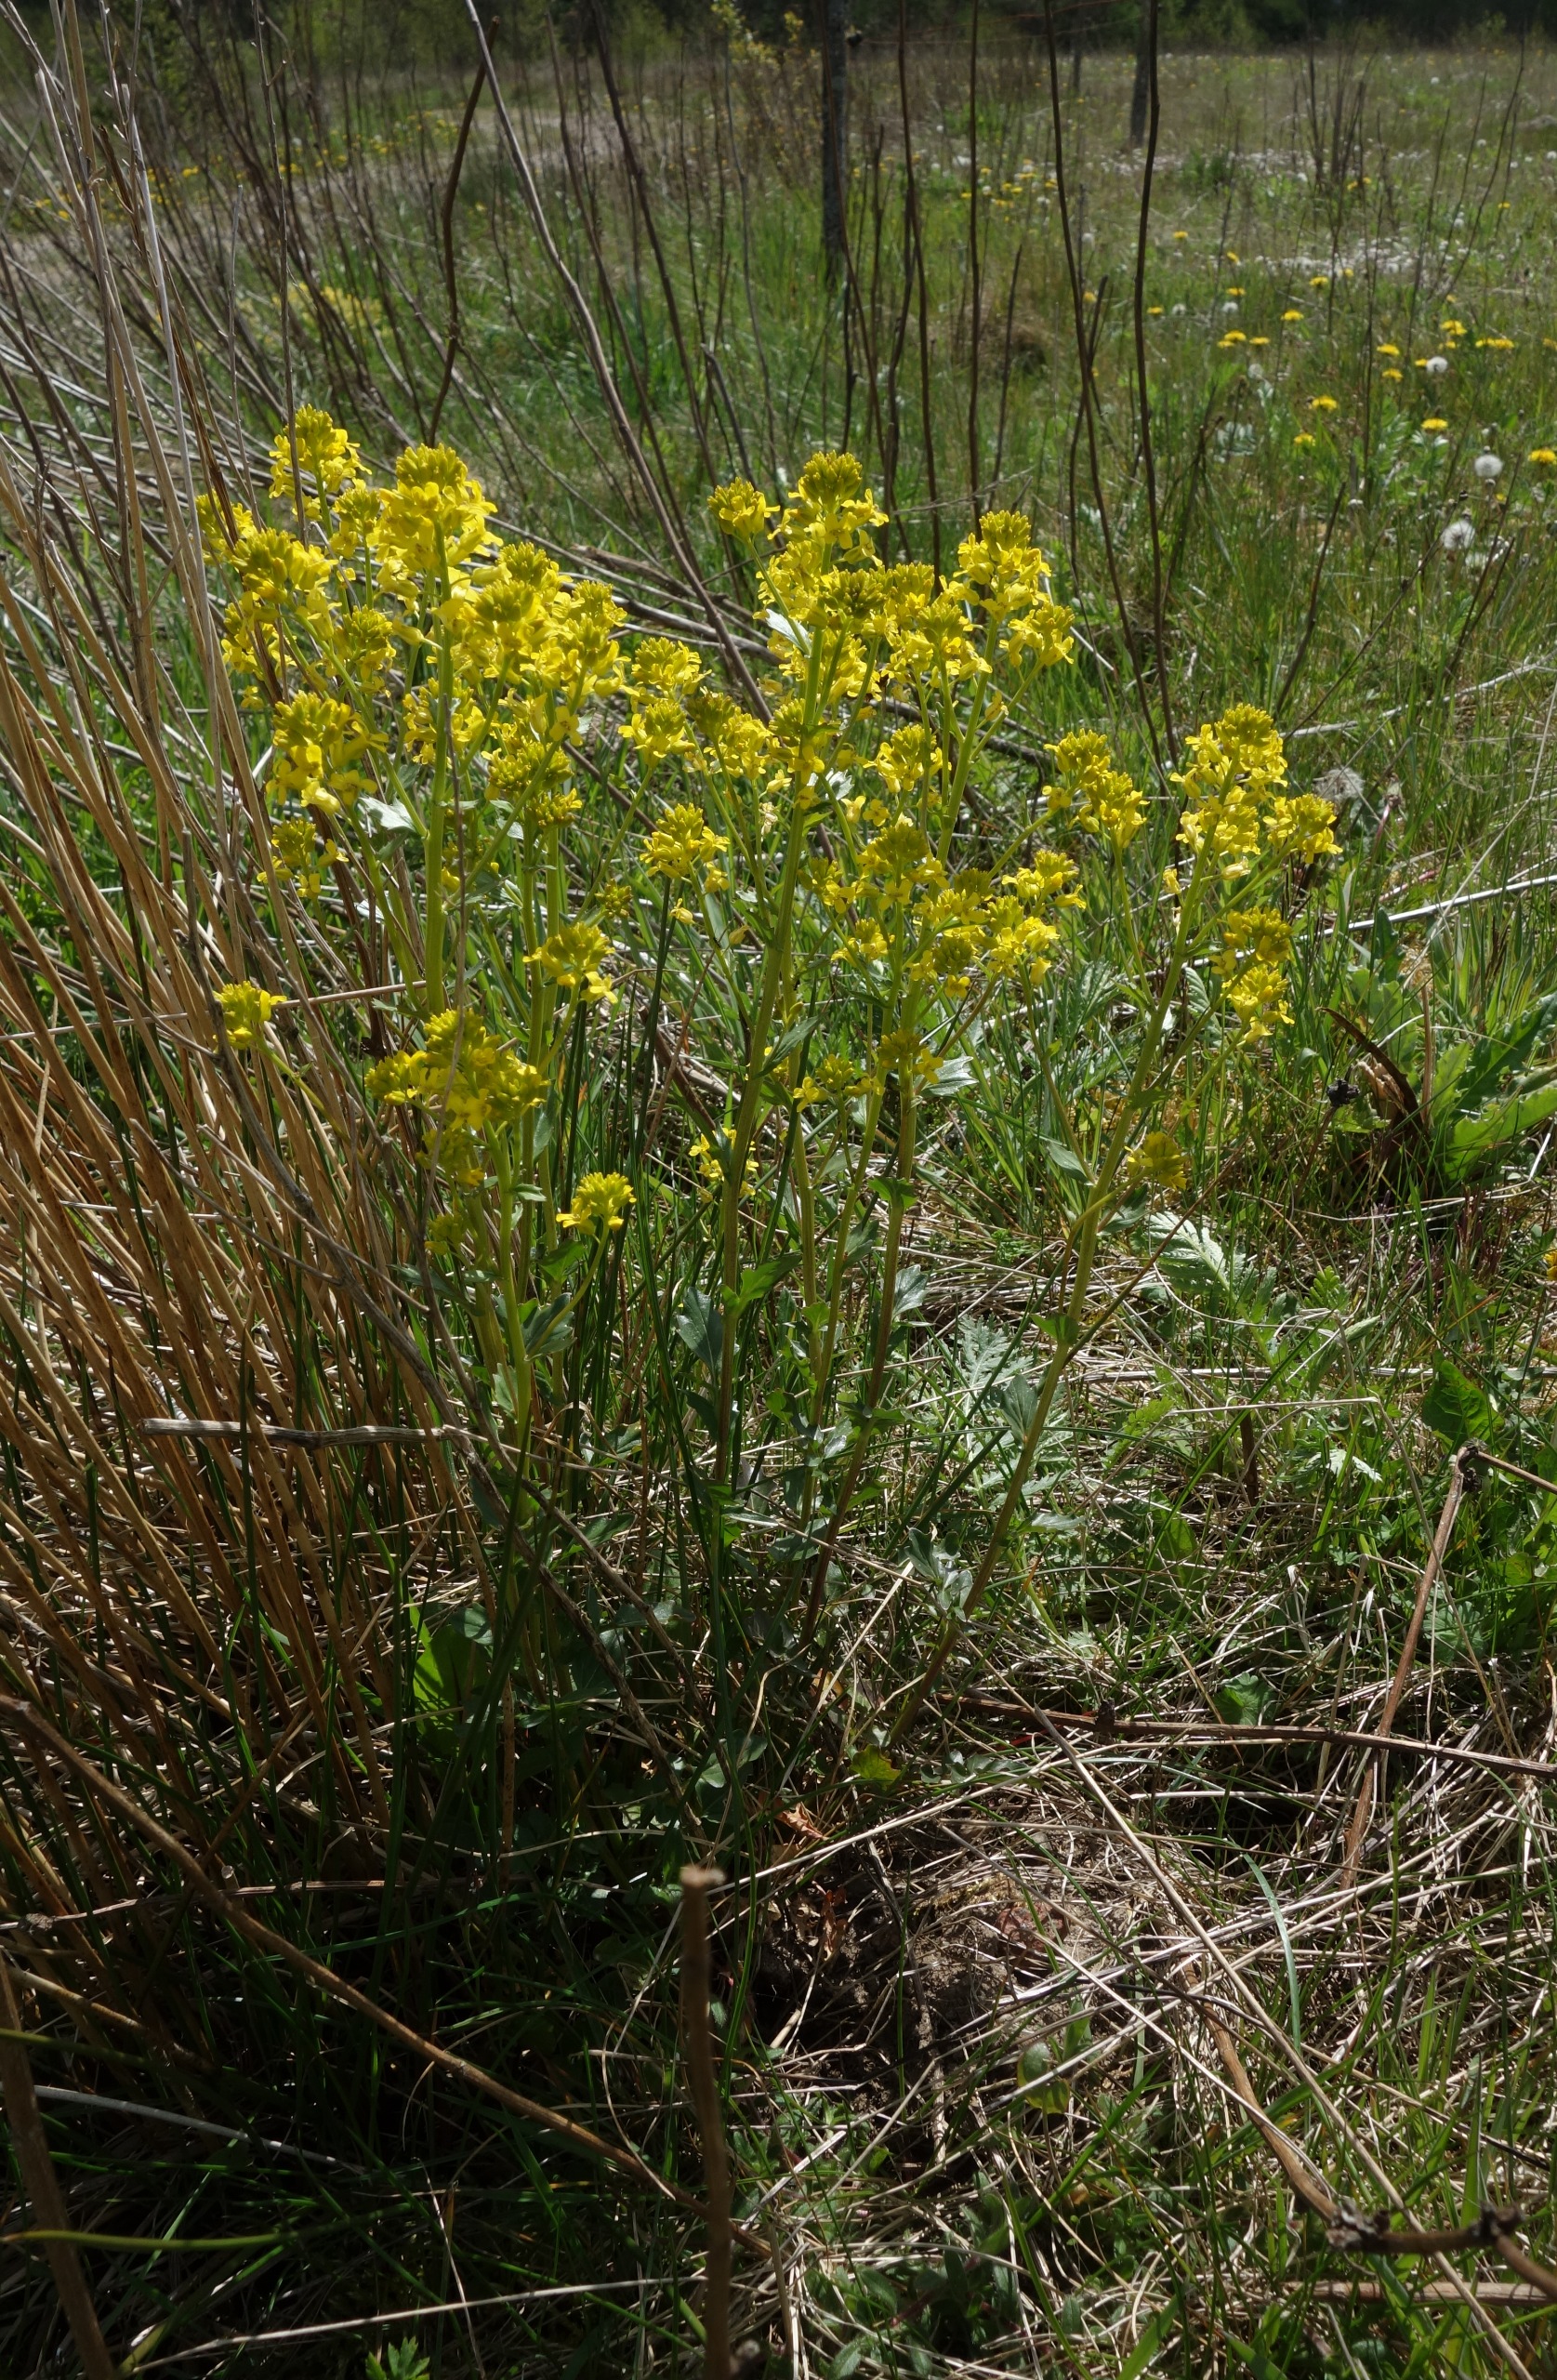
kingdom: Plantae
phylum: Tracheophyta
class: Magnoliopsida
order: Brassicales
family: Brassicaceae
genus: Barbarea
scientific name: Barbarea vulgaris
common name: Udspærret vinterkarse
